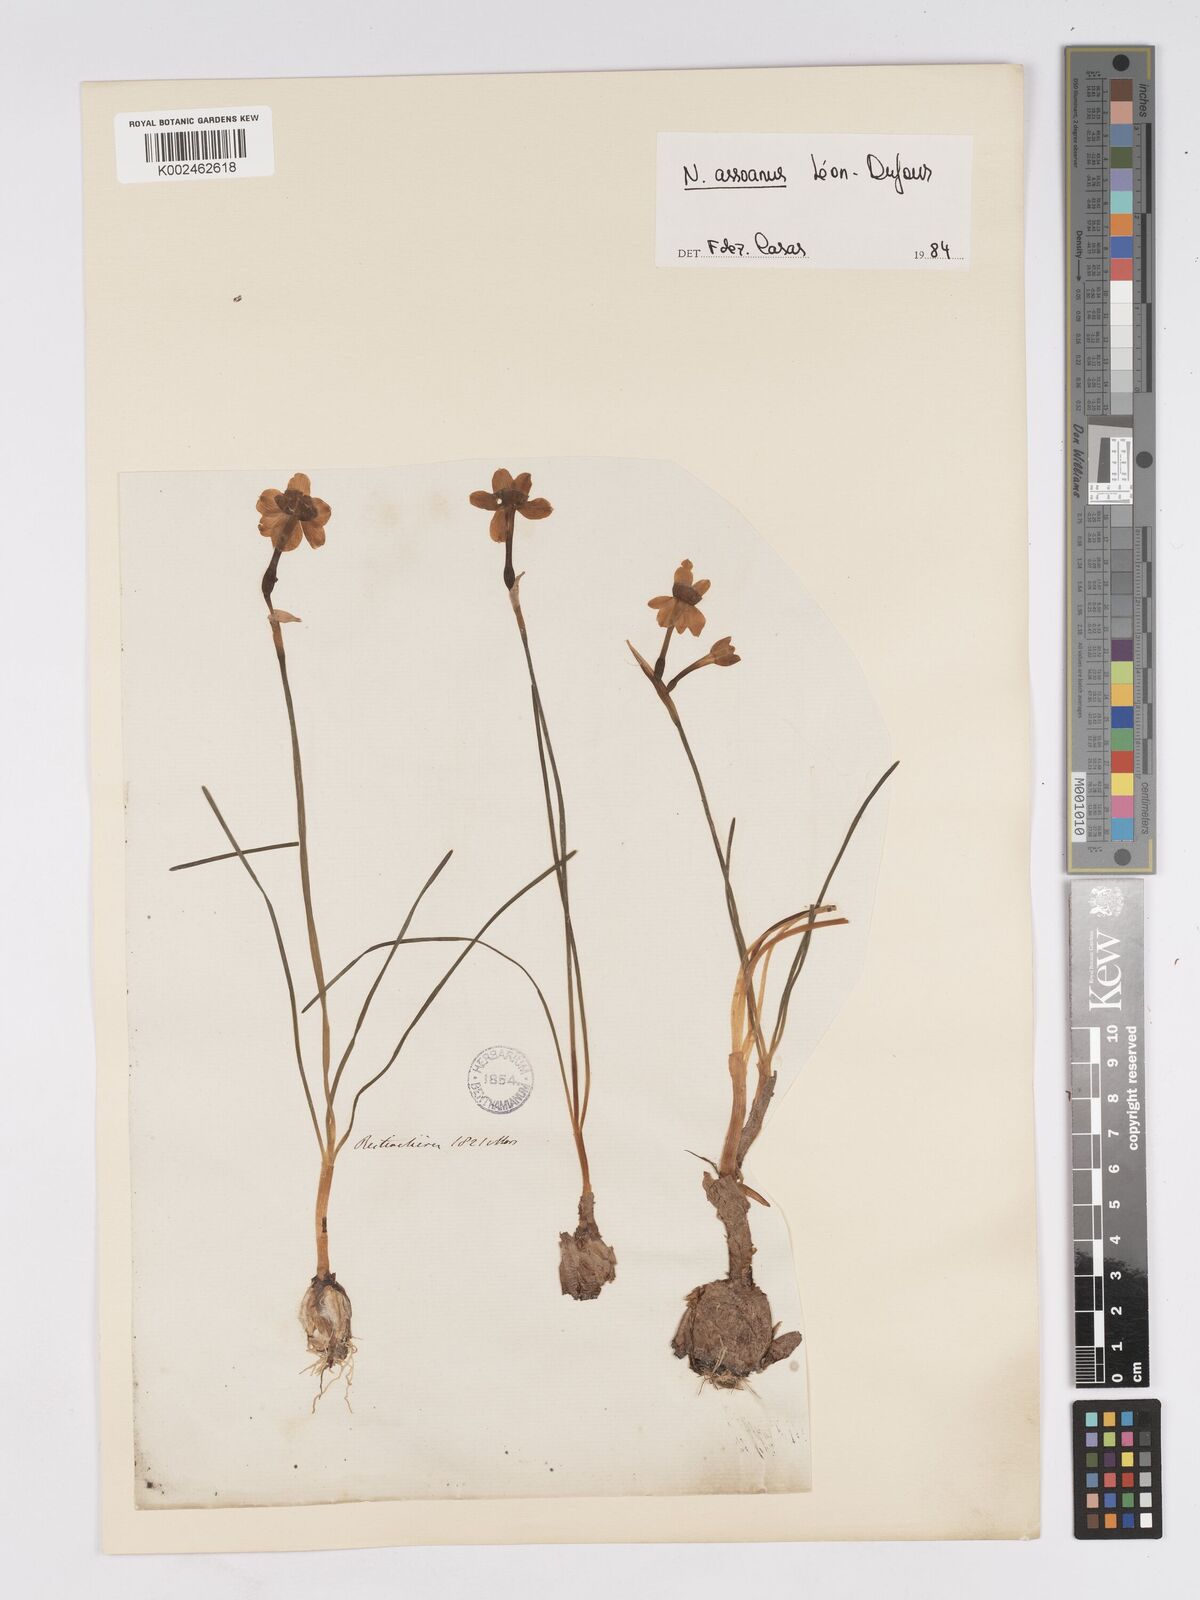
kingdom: Plantae
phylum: Tracheophyta
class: Liliopsida
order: Asparagales
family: Amaryllidaceae
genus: Narcissus
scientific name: Narcissus assoanus
